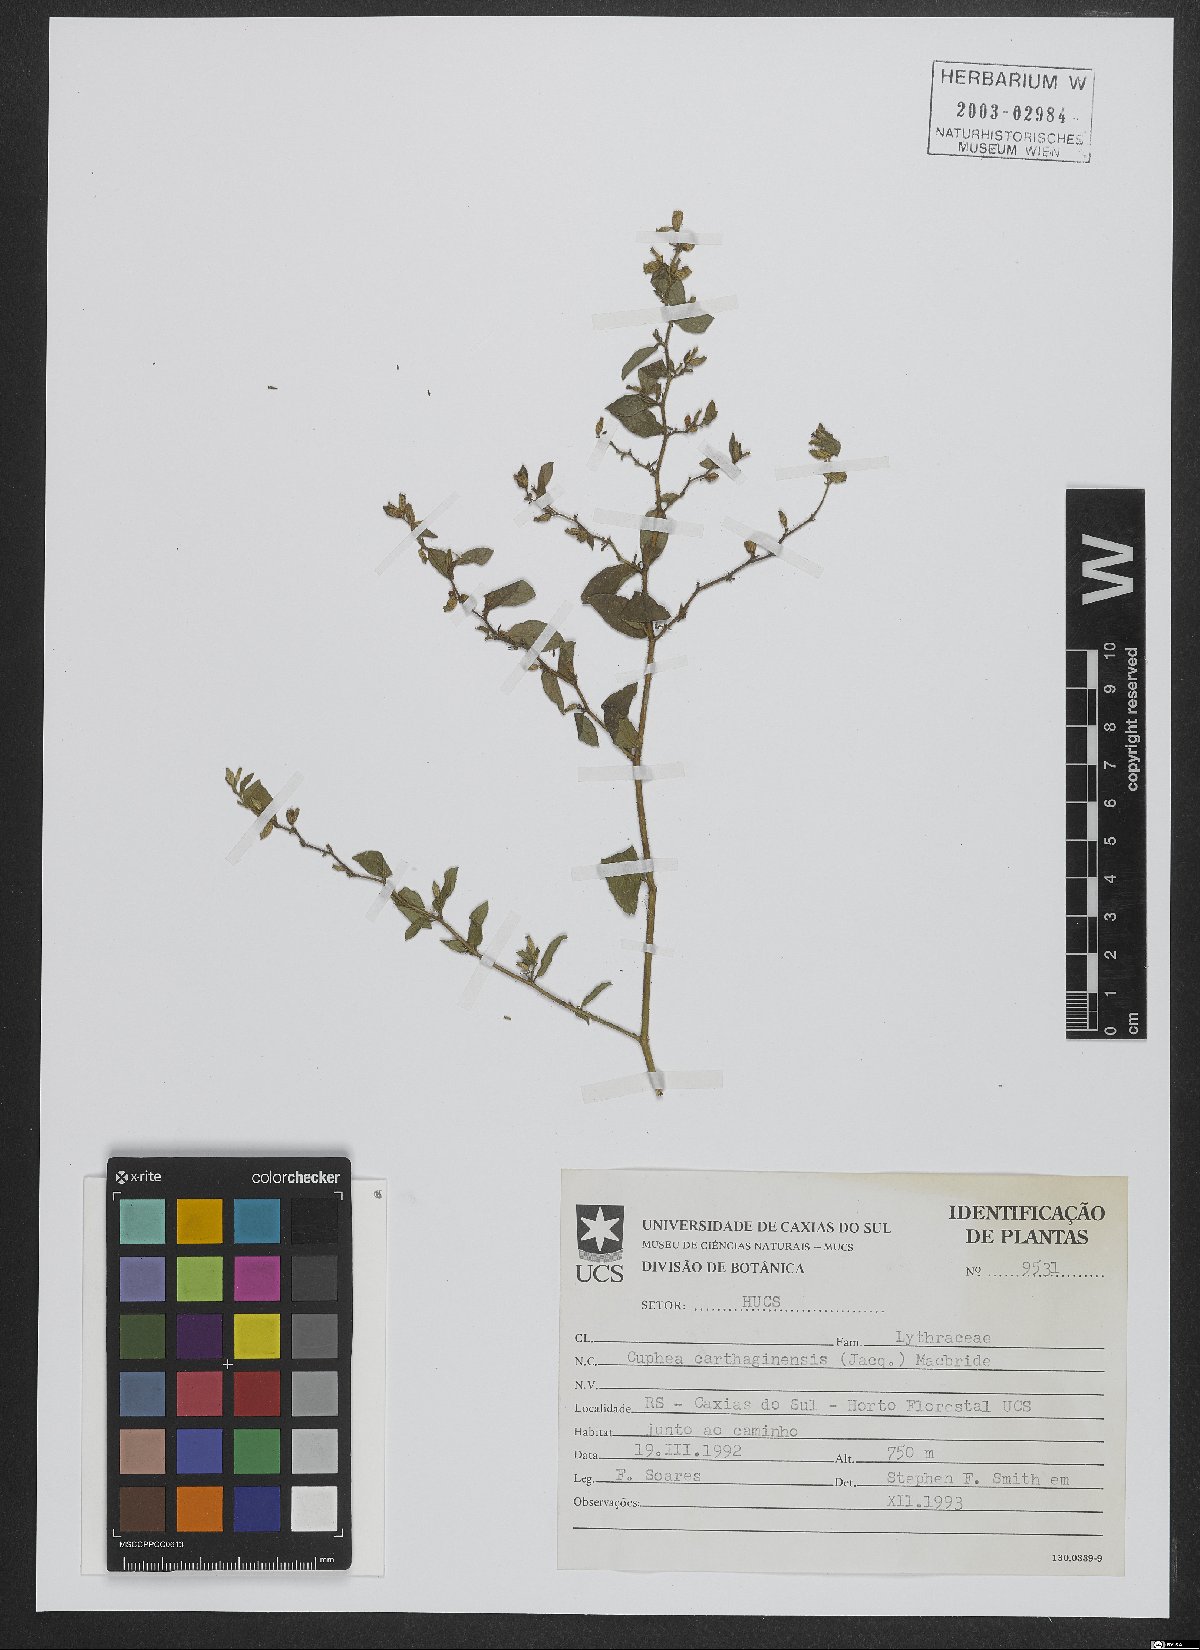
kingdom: Plantae
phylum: Tracheophyta
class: Magnoliopsida
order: Myrtales
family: Lythraceae
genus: Cuphea
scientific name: Cuphea carthagenensis
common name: Colombian waxweed
